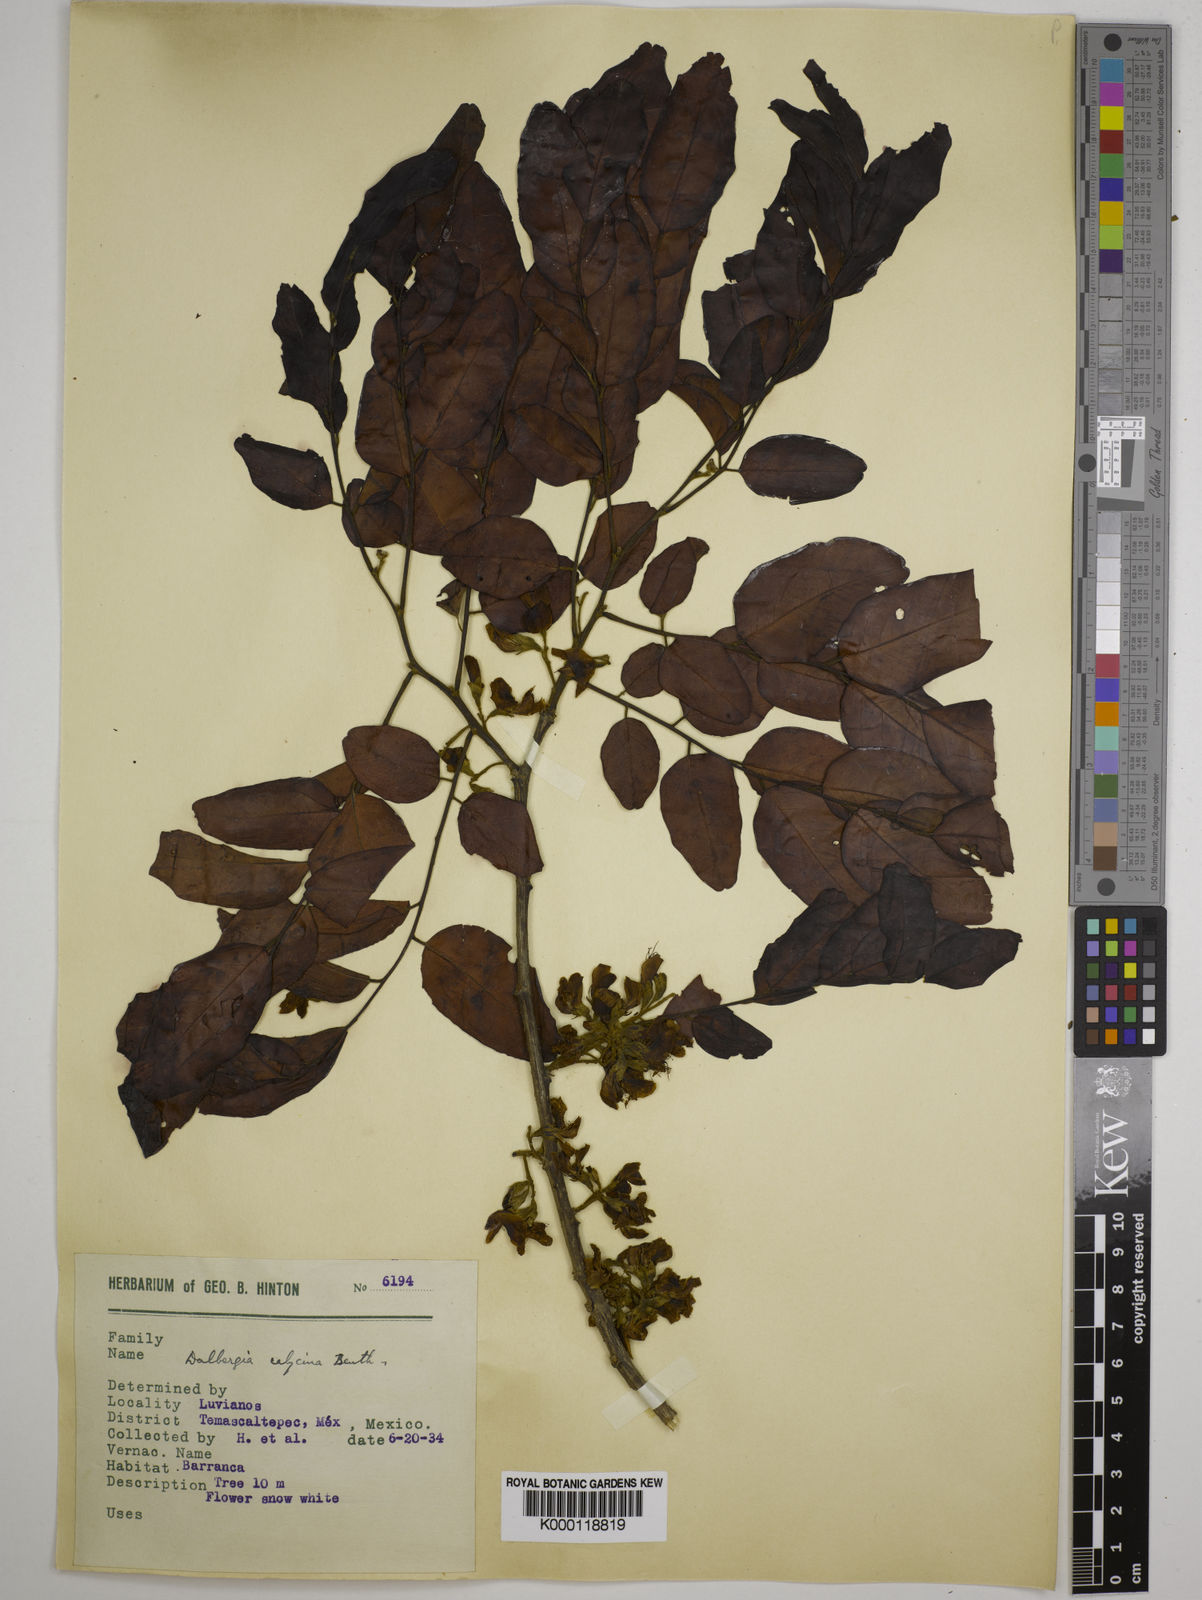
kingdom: Plantae
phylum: Tracheophyta
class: Magnoliopsida
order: Fabales
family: Fabaceae
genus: Dalbergia
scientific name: Dalbergia calycina
